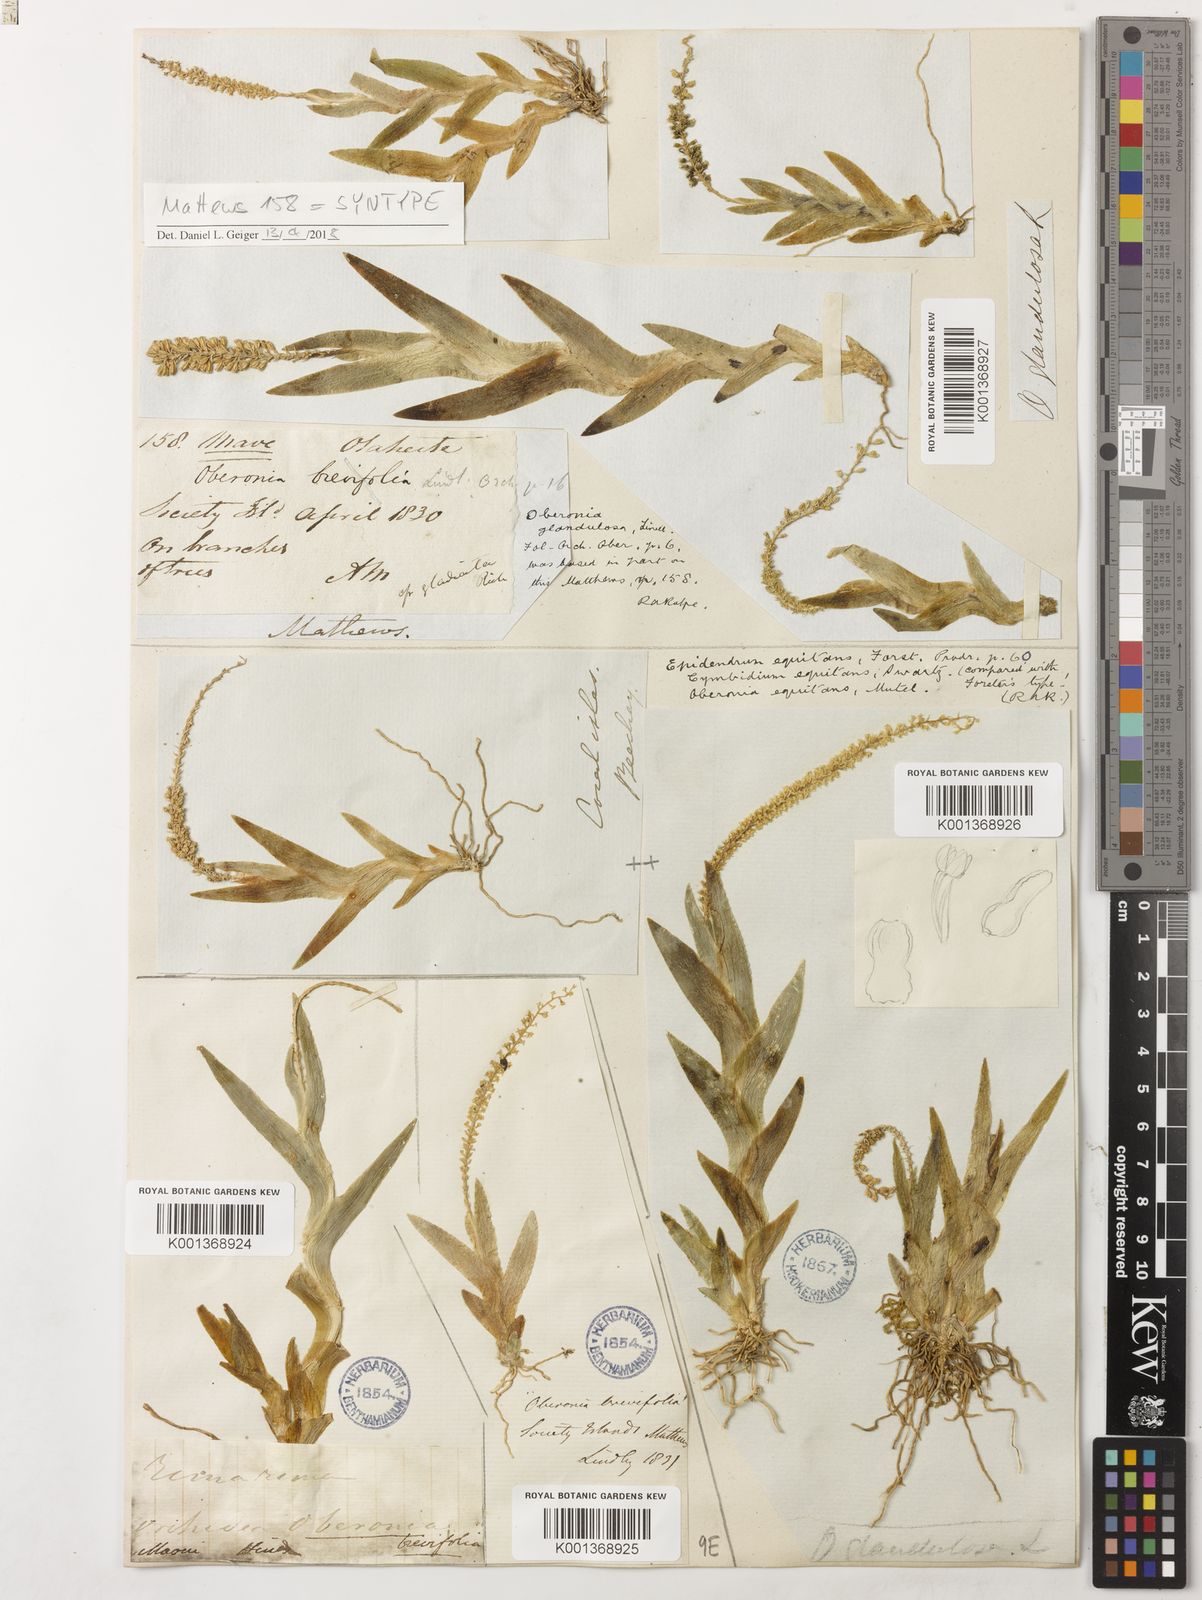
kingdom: Plantae
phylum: Tracheophyta
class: Liliopsida
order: Asparagales
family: Orchidaceae
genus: Oberonia
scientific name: Oberonia equitans
